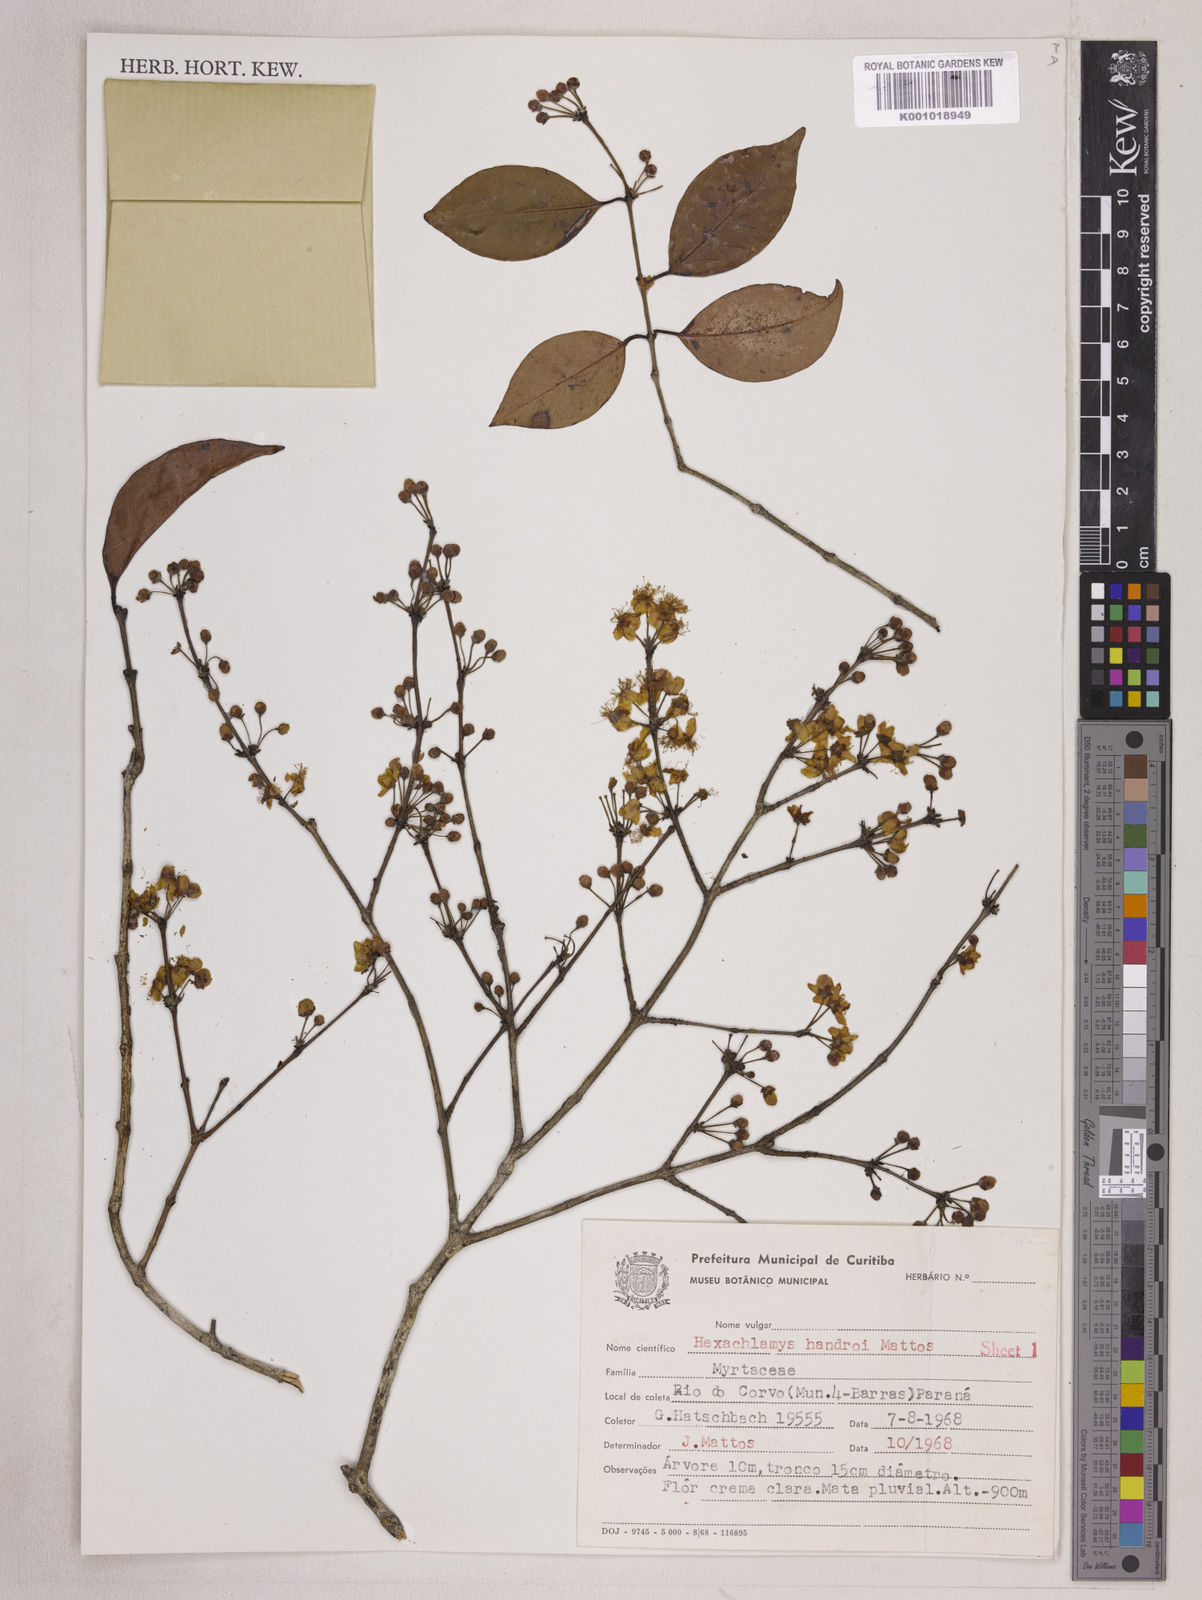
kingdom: Plantae
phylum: Tracheophyta
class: Magnoliopsida
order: Myrtales
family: Myrtaceae
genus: Eugenia
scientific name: Eugenia handroi
